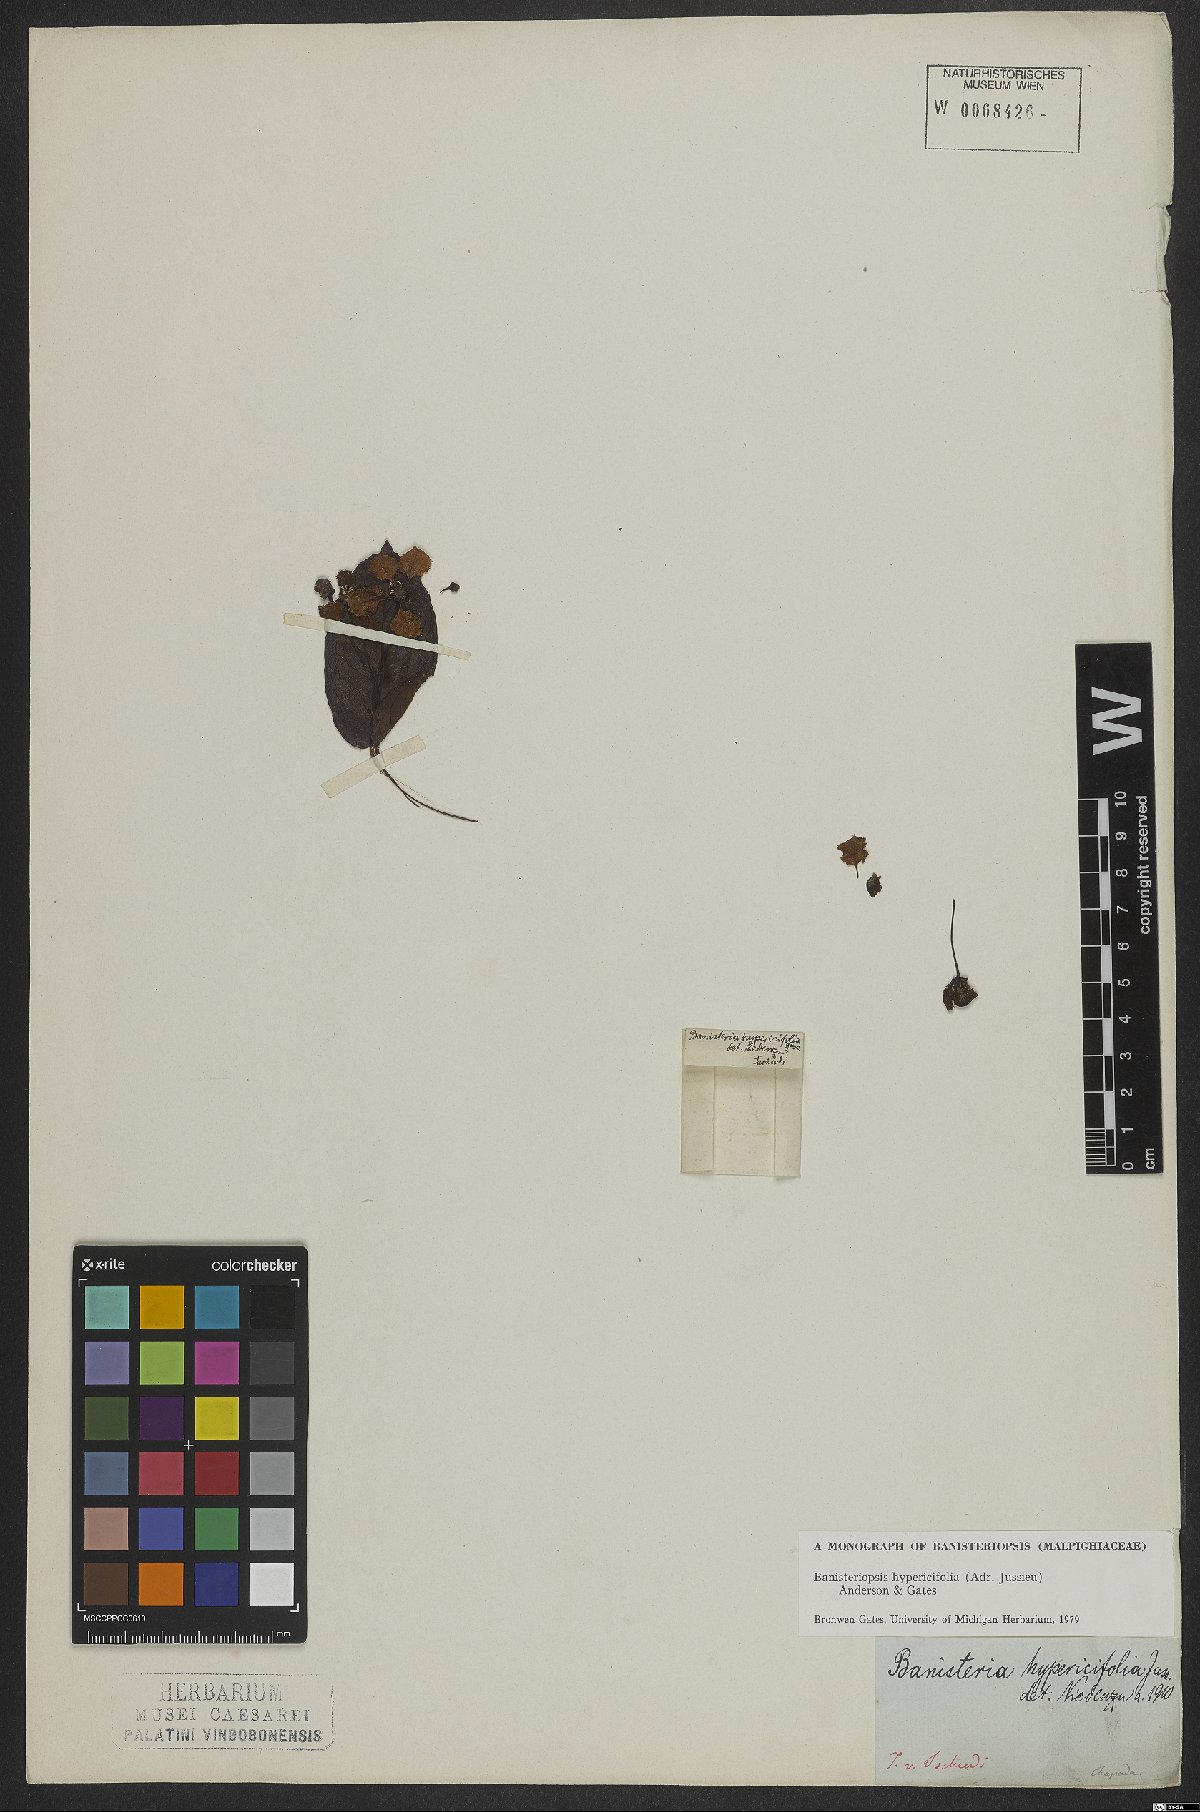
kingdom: Plantae
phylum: Tracheophyta
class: Magnoliopsida
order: Malpighiales
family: Malpighiaceae
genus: Diplopterys
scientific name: Diplopterys hypericifolia
